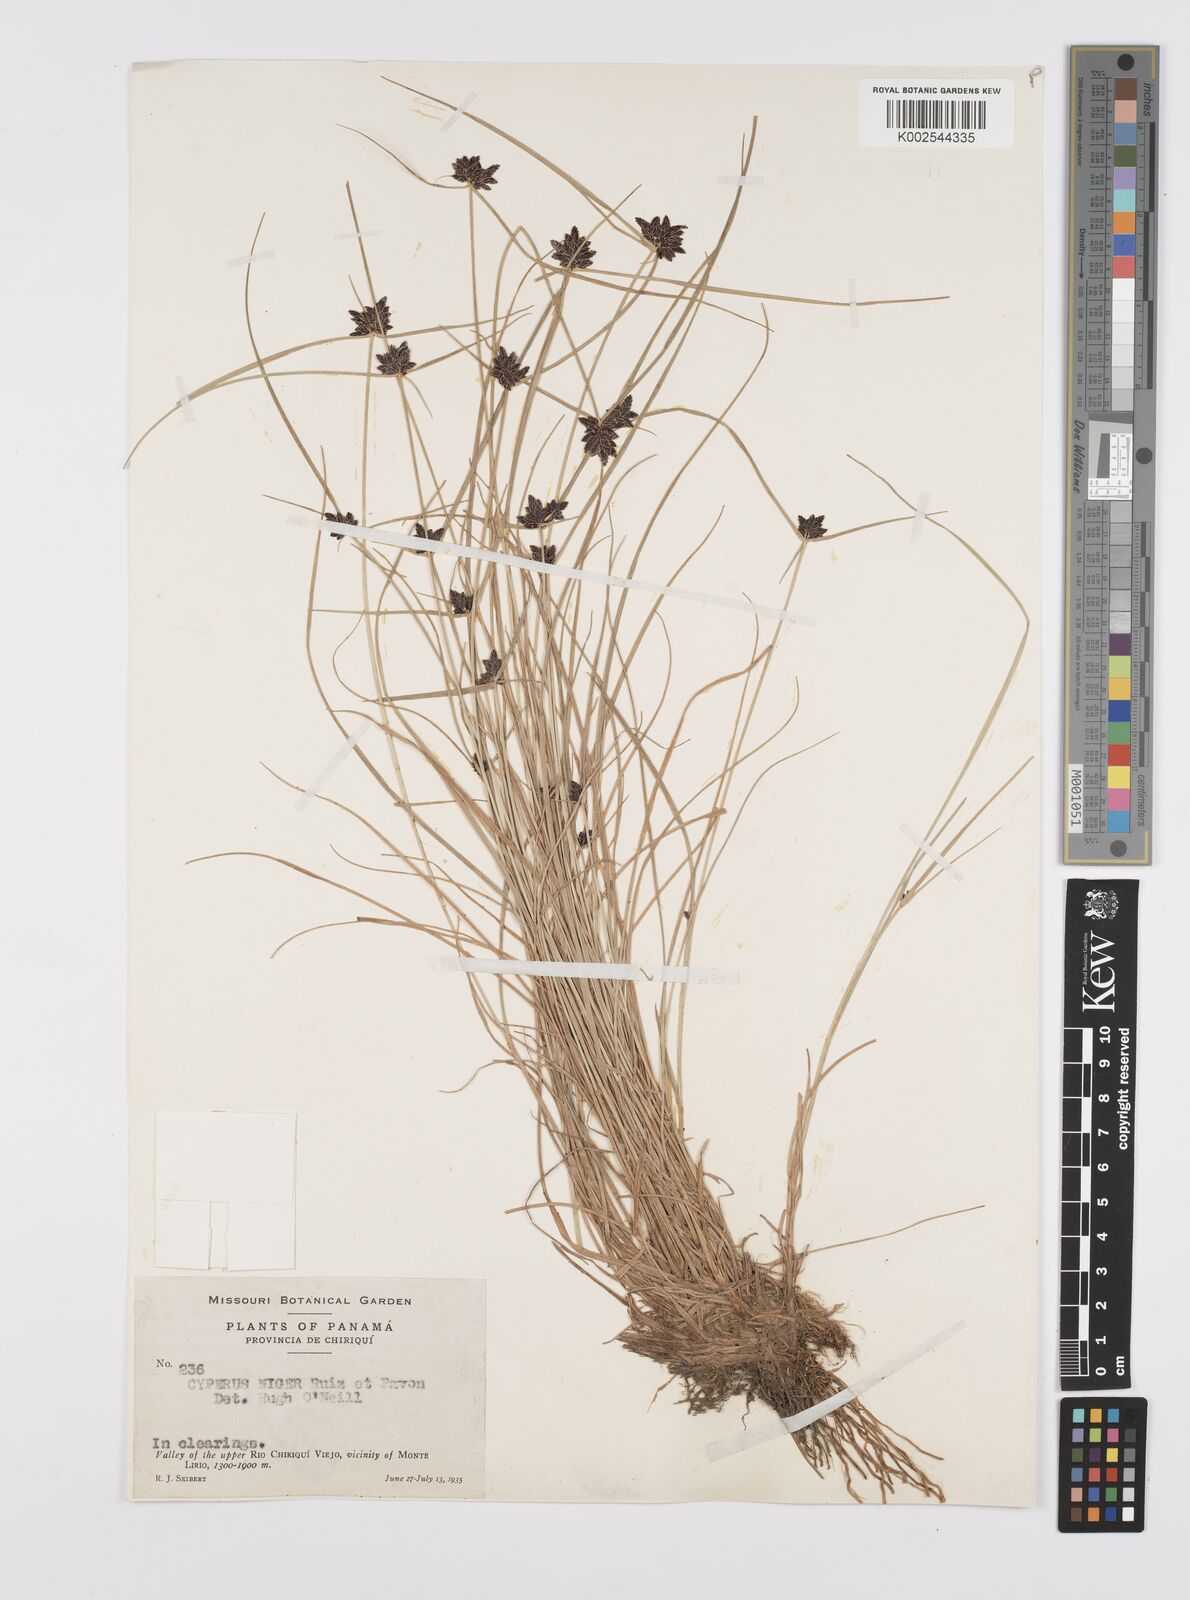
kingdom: Plantae
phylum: Tracheophyta
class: Liliopsida
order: Poales
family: Cyperaceae
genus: Cyperus
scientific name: Cyperus melanostachyus
